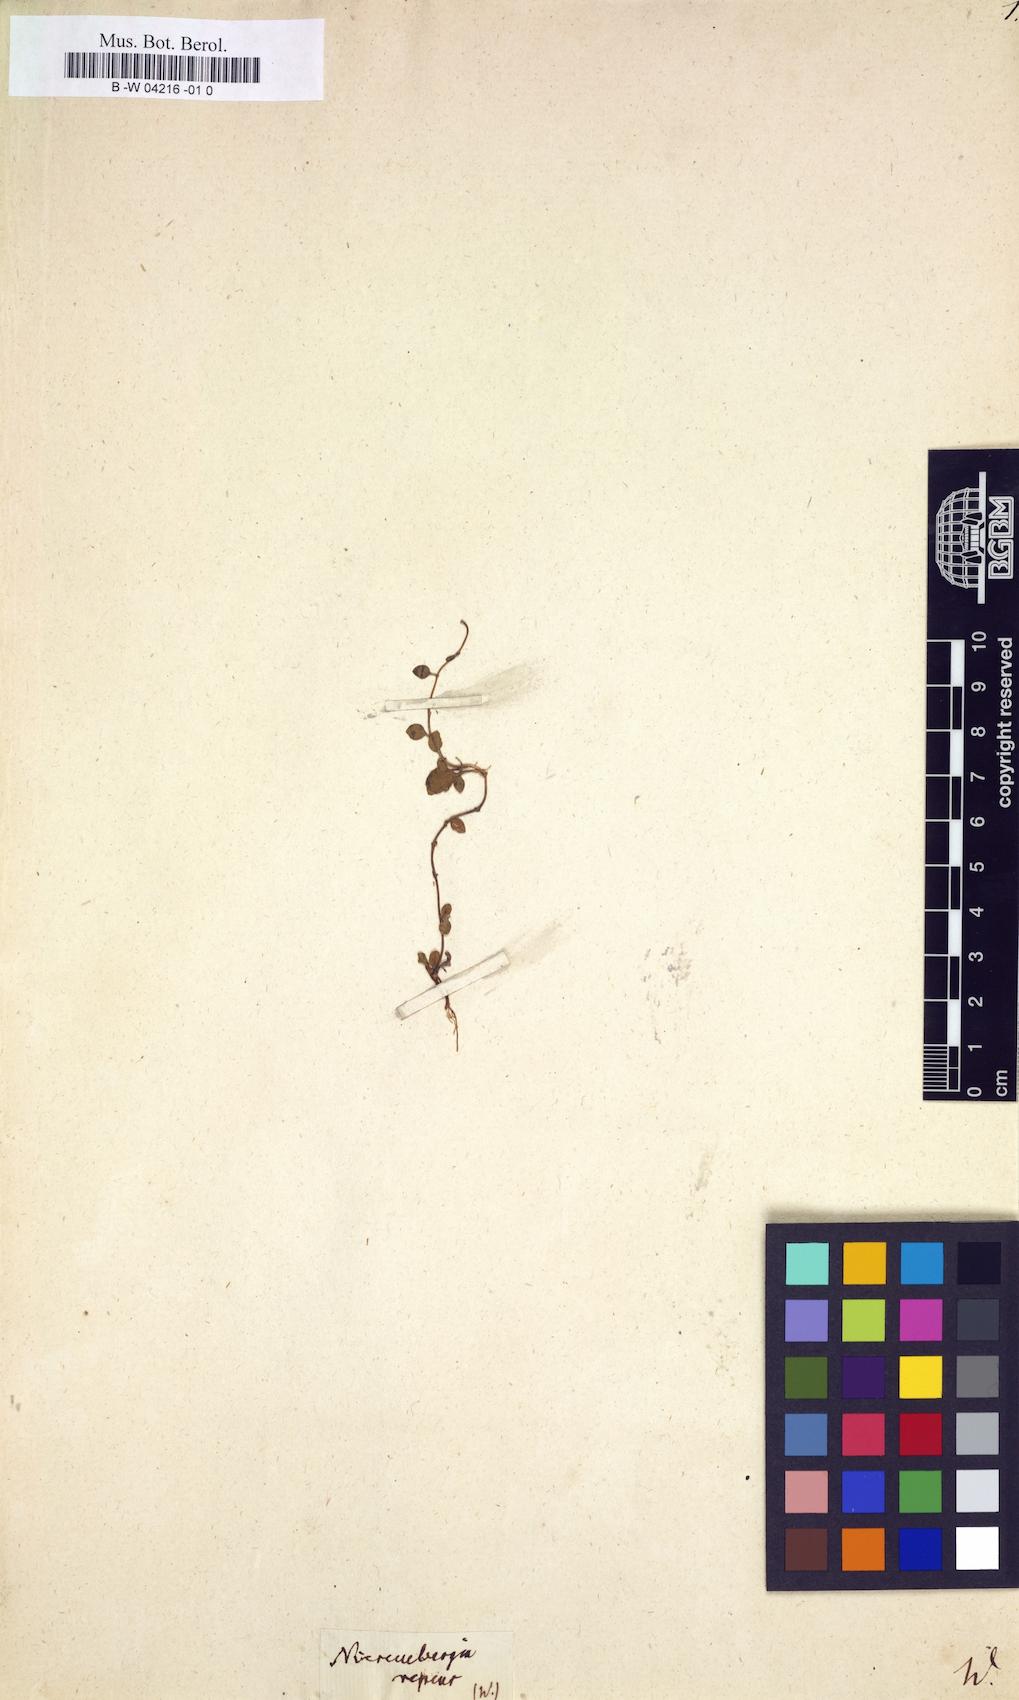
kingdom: Plantae
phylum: Tracheophyta
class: Magnoliopsida
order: Solanales
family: Solanaceae
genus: Nierembergia
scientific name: Nierembergia repens
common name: Whitecup
